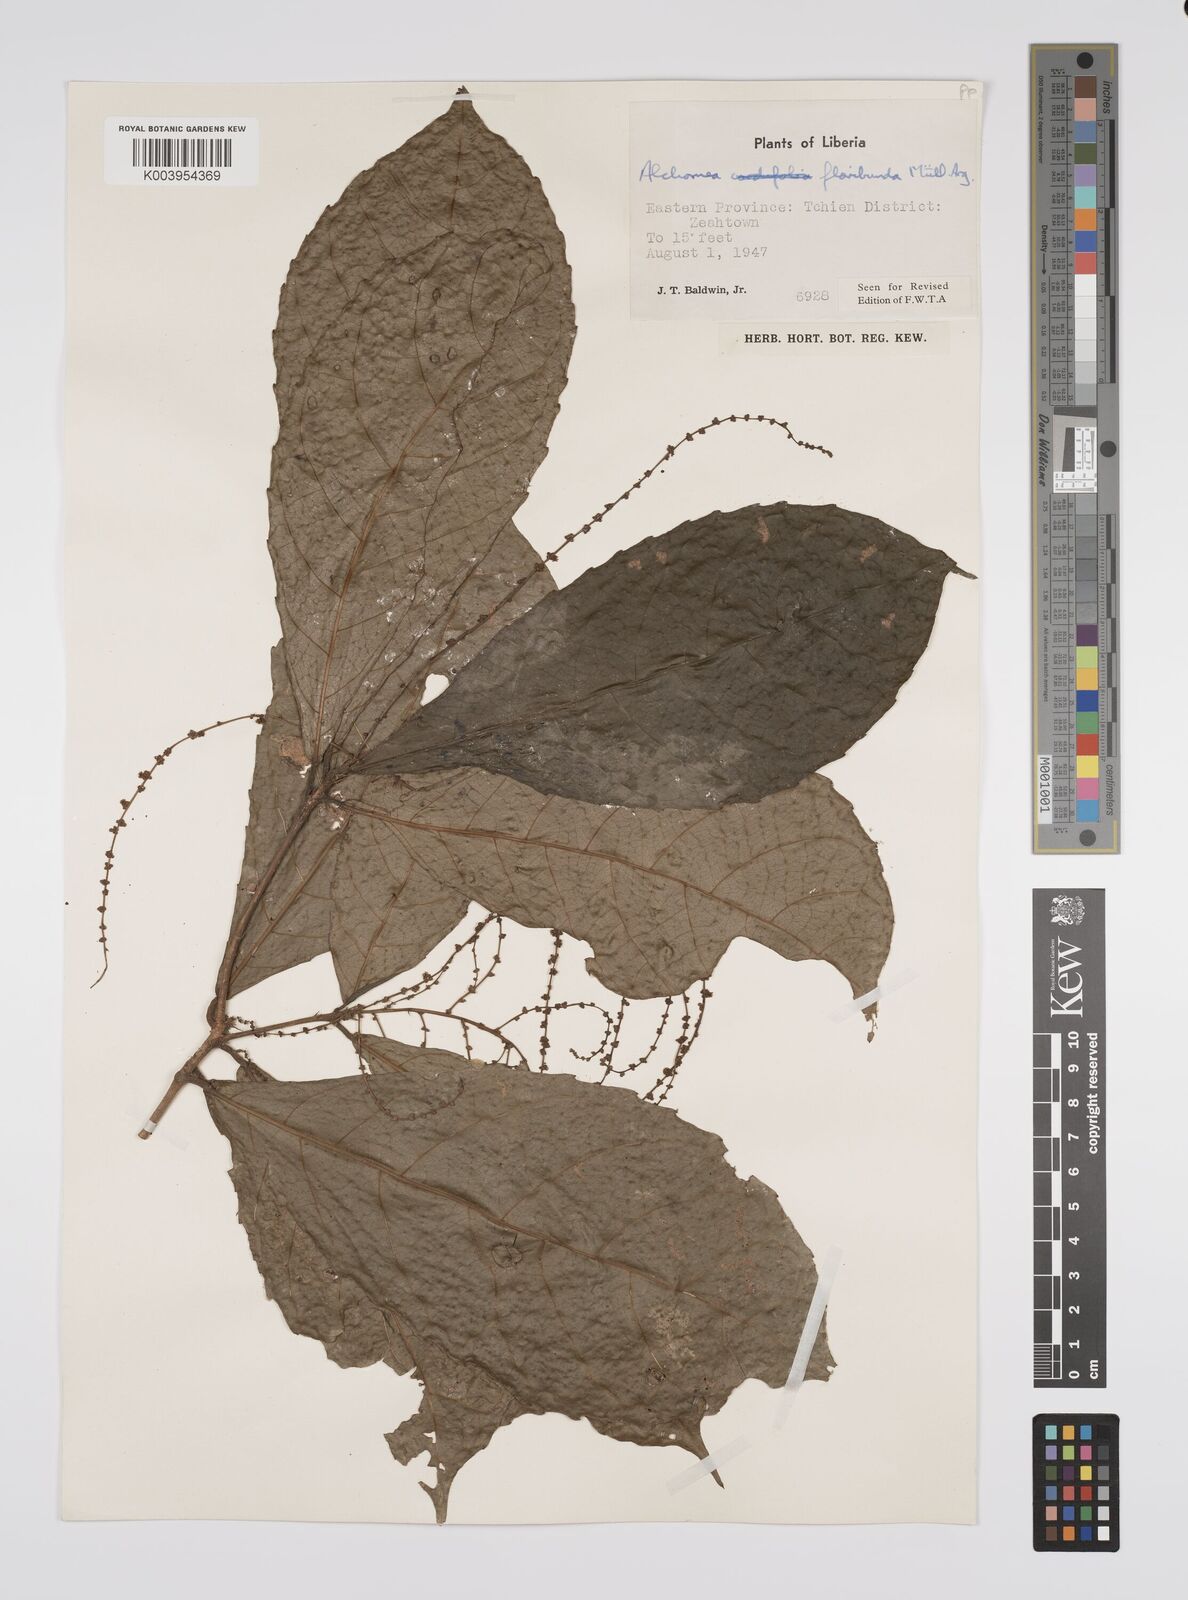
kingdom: Plantae
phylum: Tracheophyta
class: Magnoliopsida
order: Malpighiales
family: Euphorbiaceae
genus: Alchornea
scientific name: Alchornea floribunda
